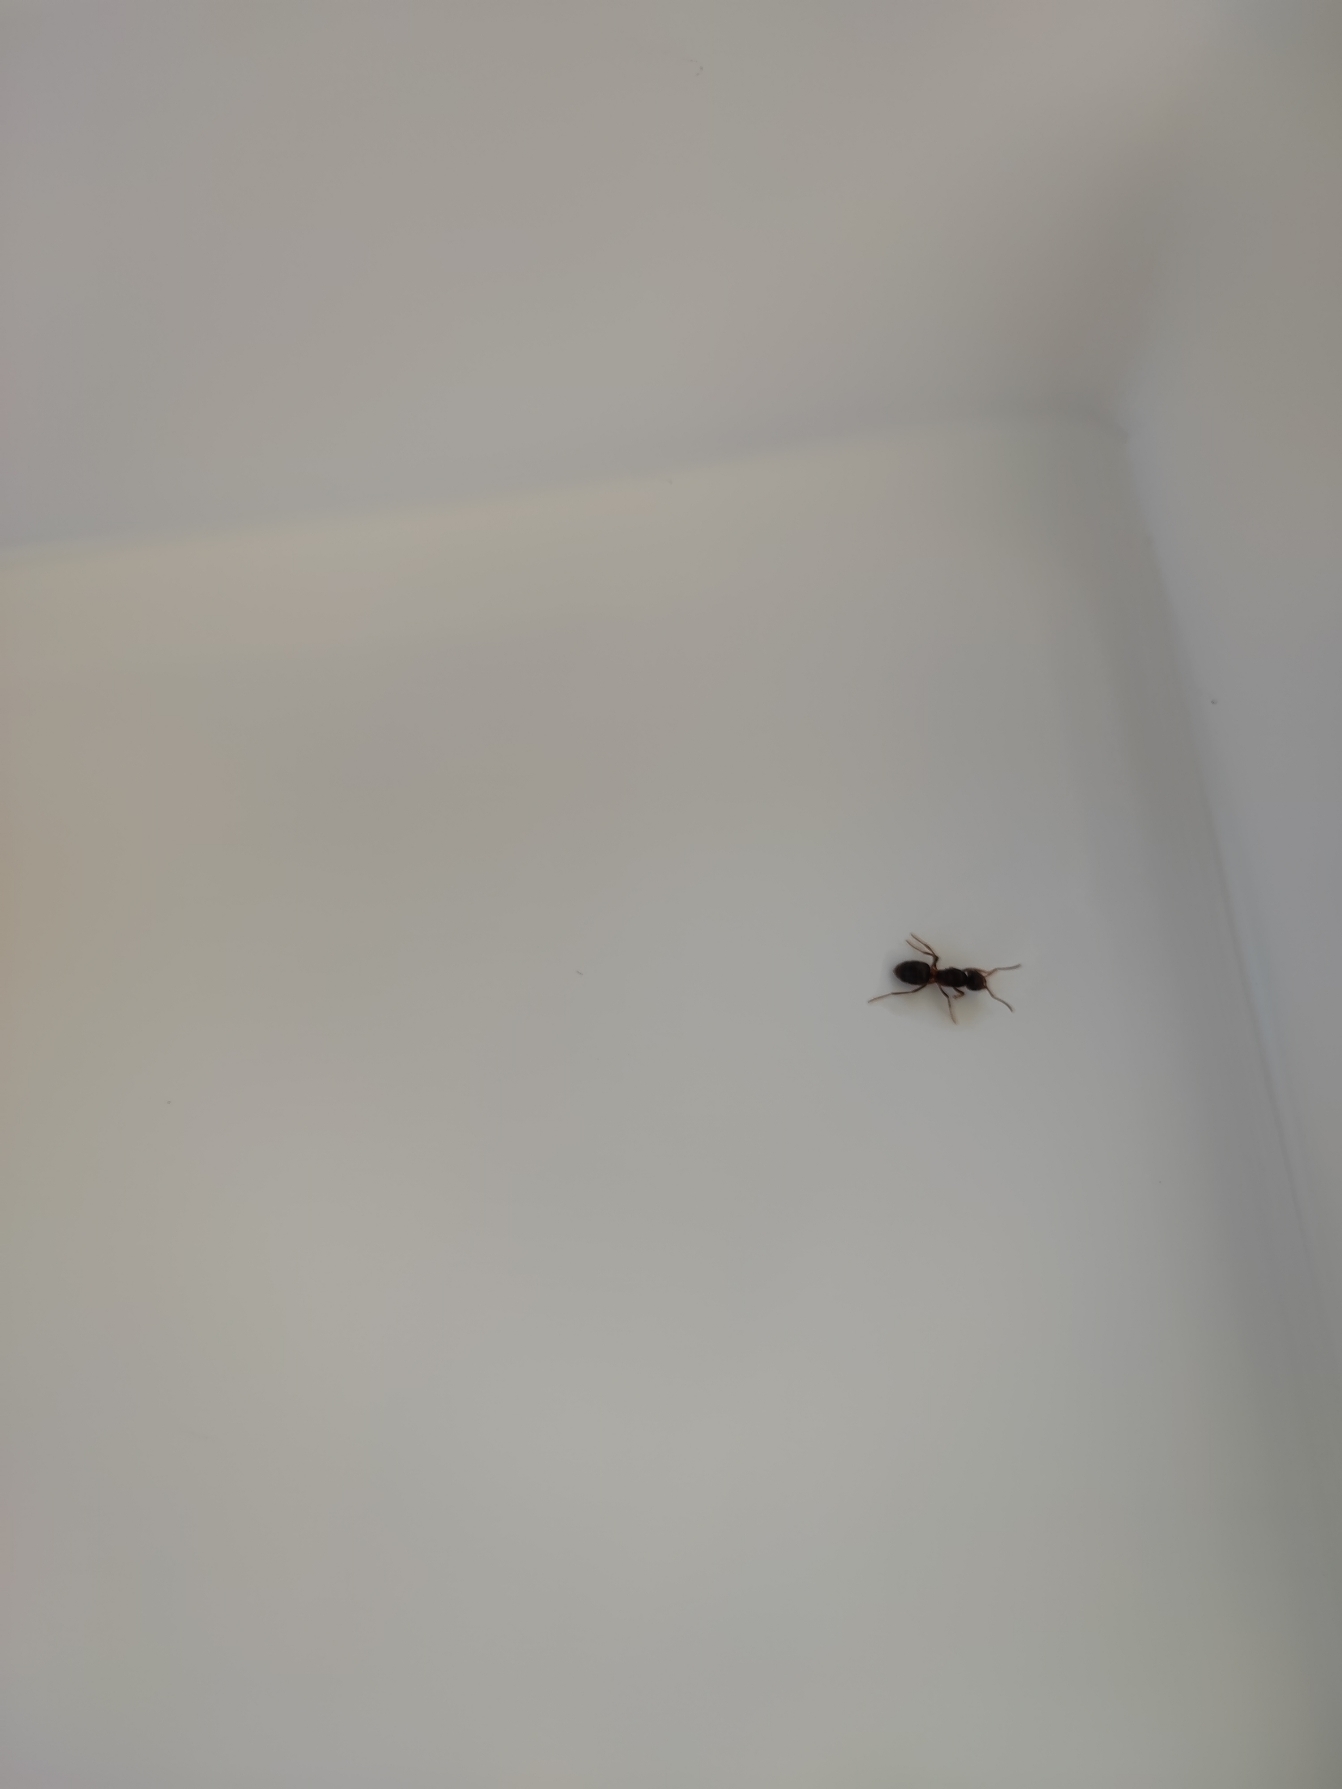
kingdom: Animalia
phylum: Arthropoda
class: Insecta
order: Hymenoptera
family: Formicidae
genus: Lasius
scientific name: Lasius
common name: Jordmyrer
